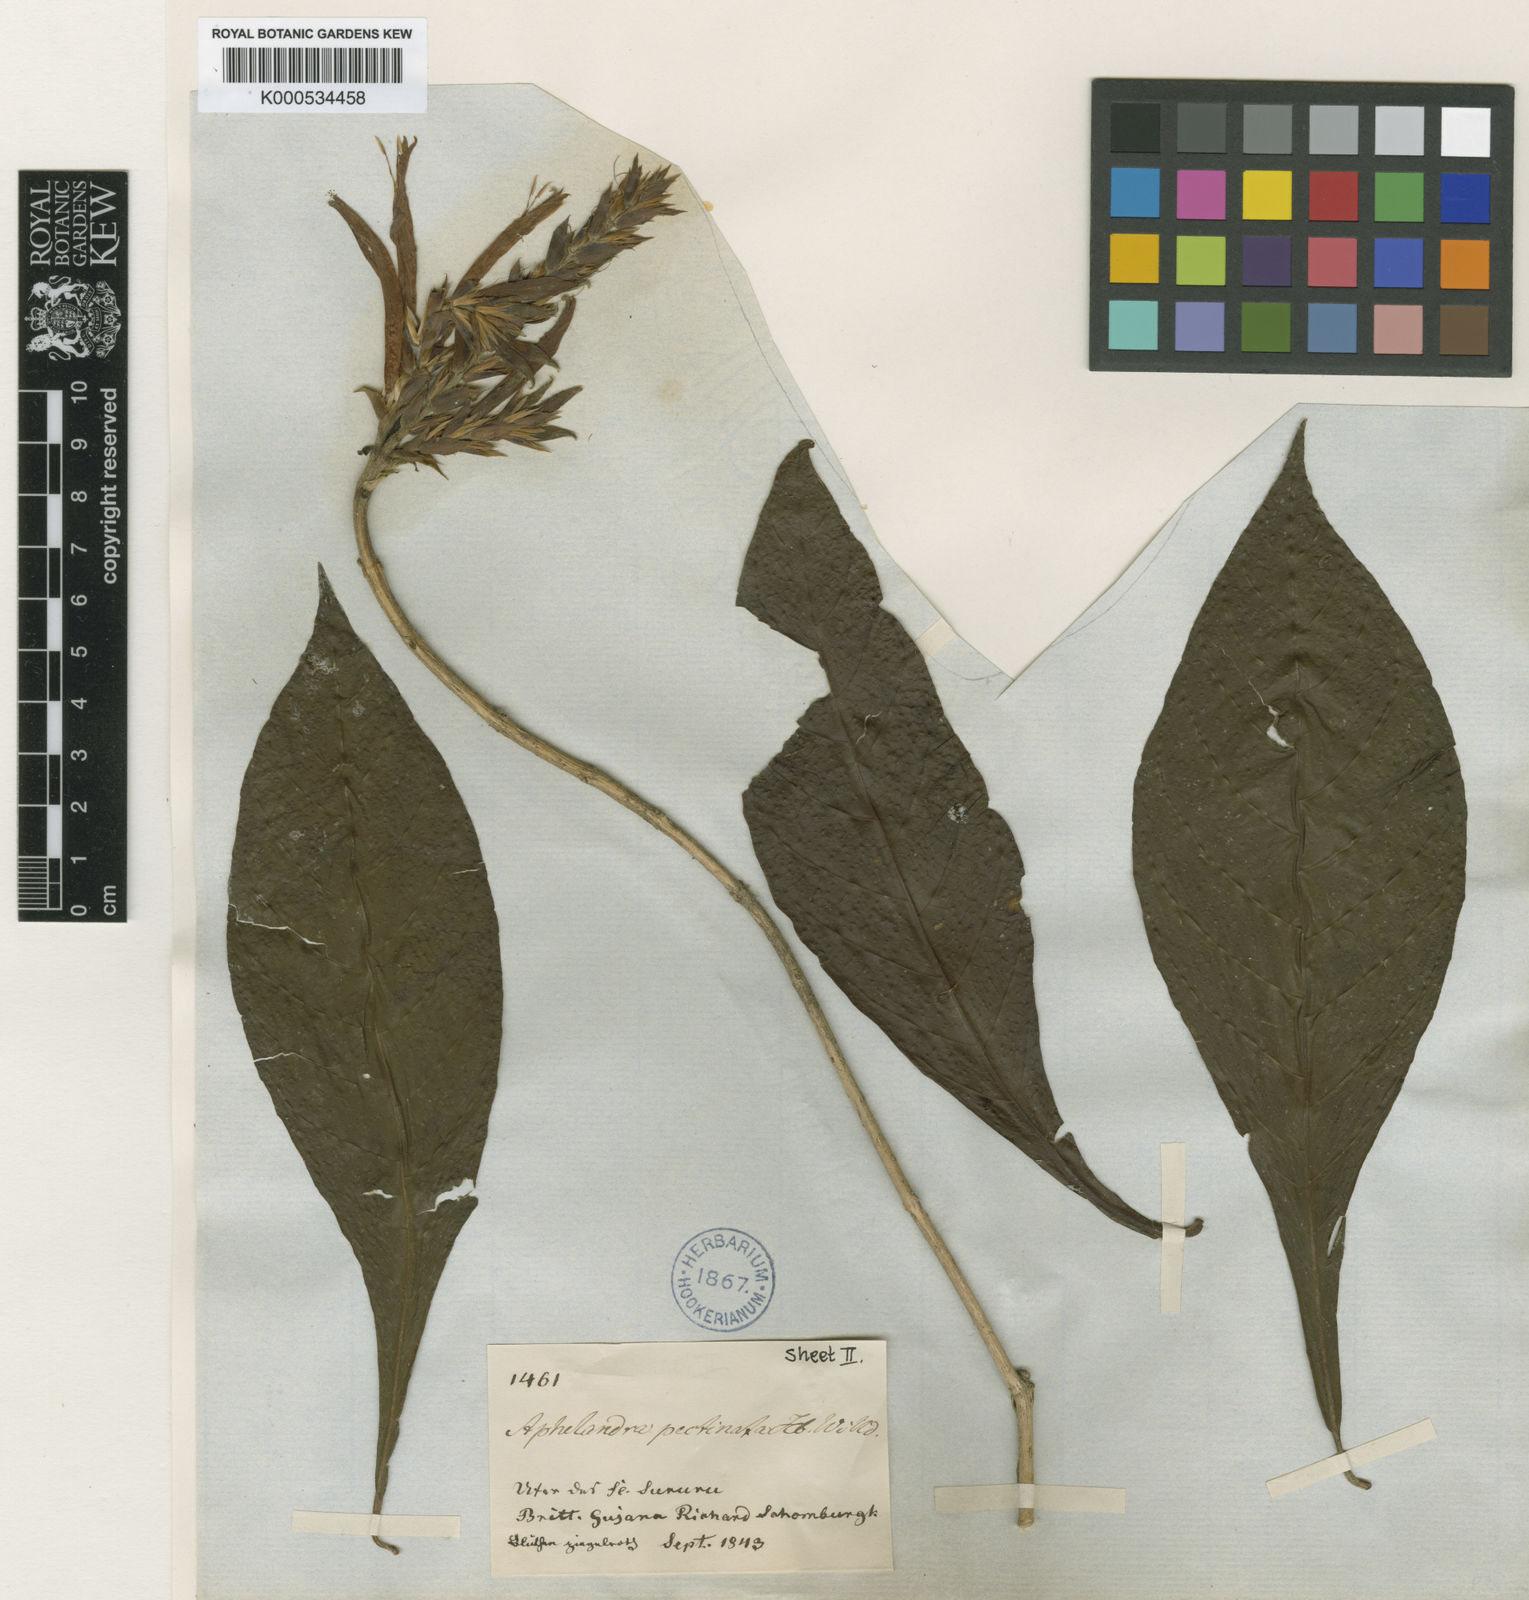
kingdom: Plantae
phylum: Tracheophyta
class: Magnoliopsida
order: Lamiales
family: Acanthaceae
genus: Aphelandra
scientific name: Aphelandra scabra
